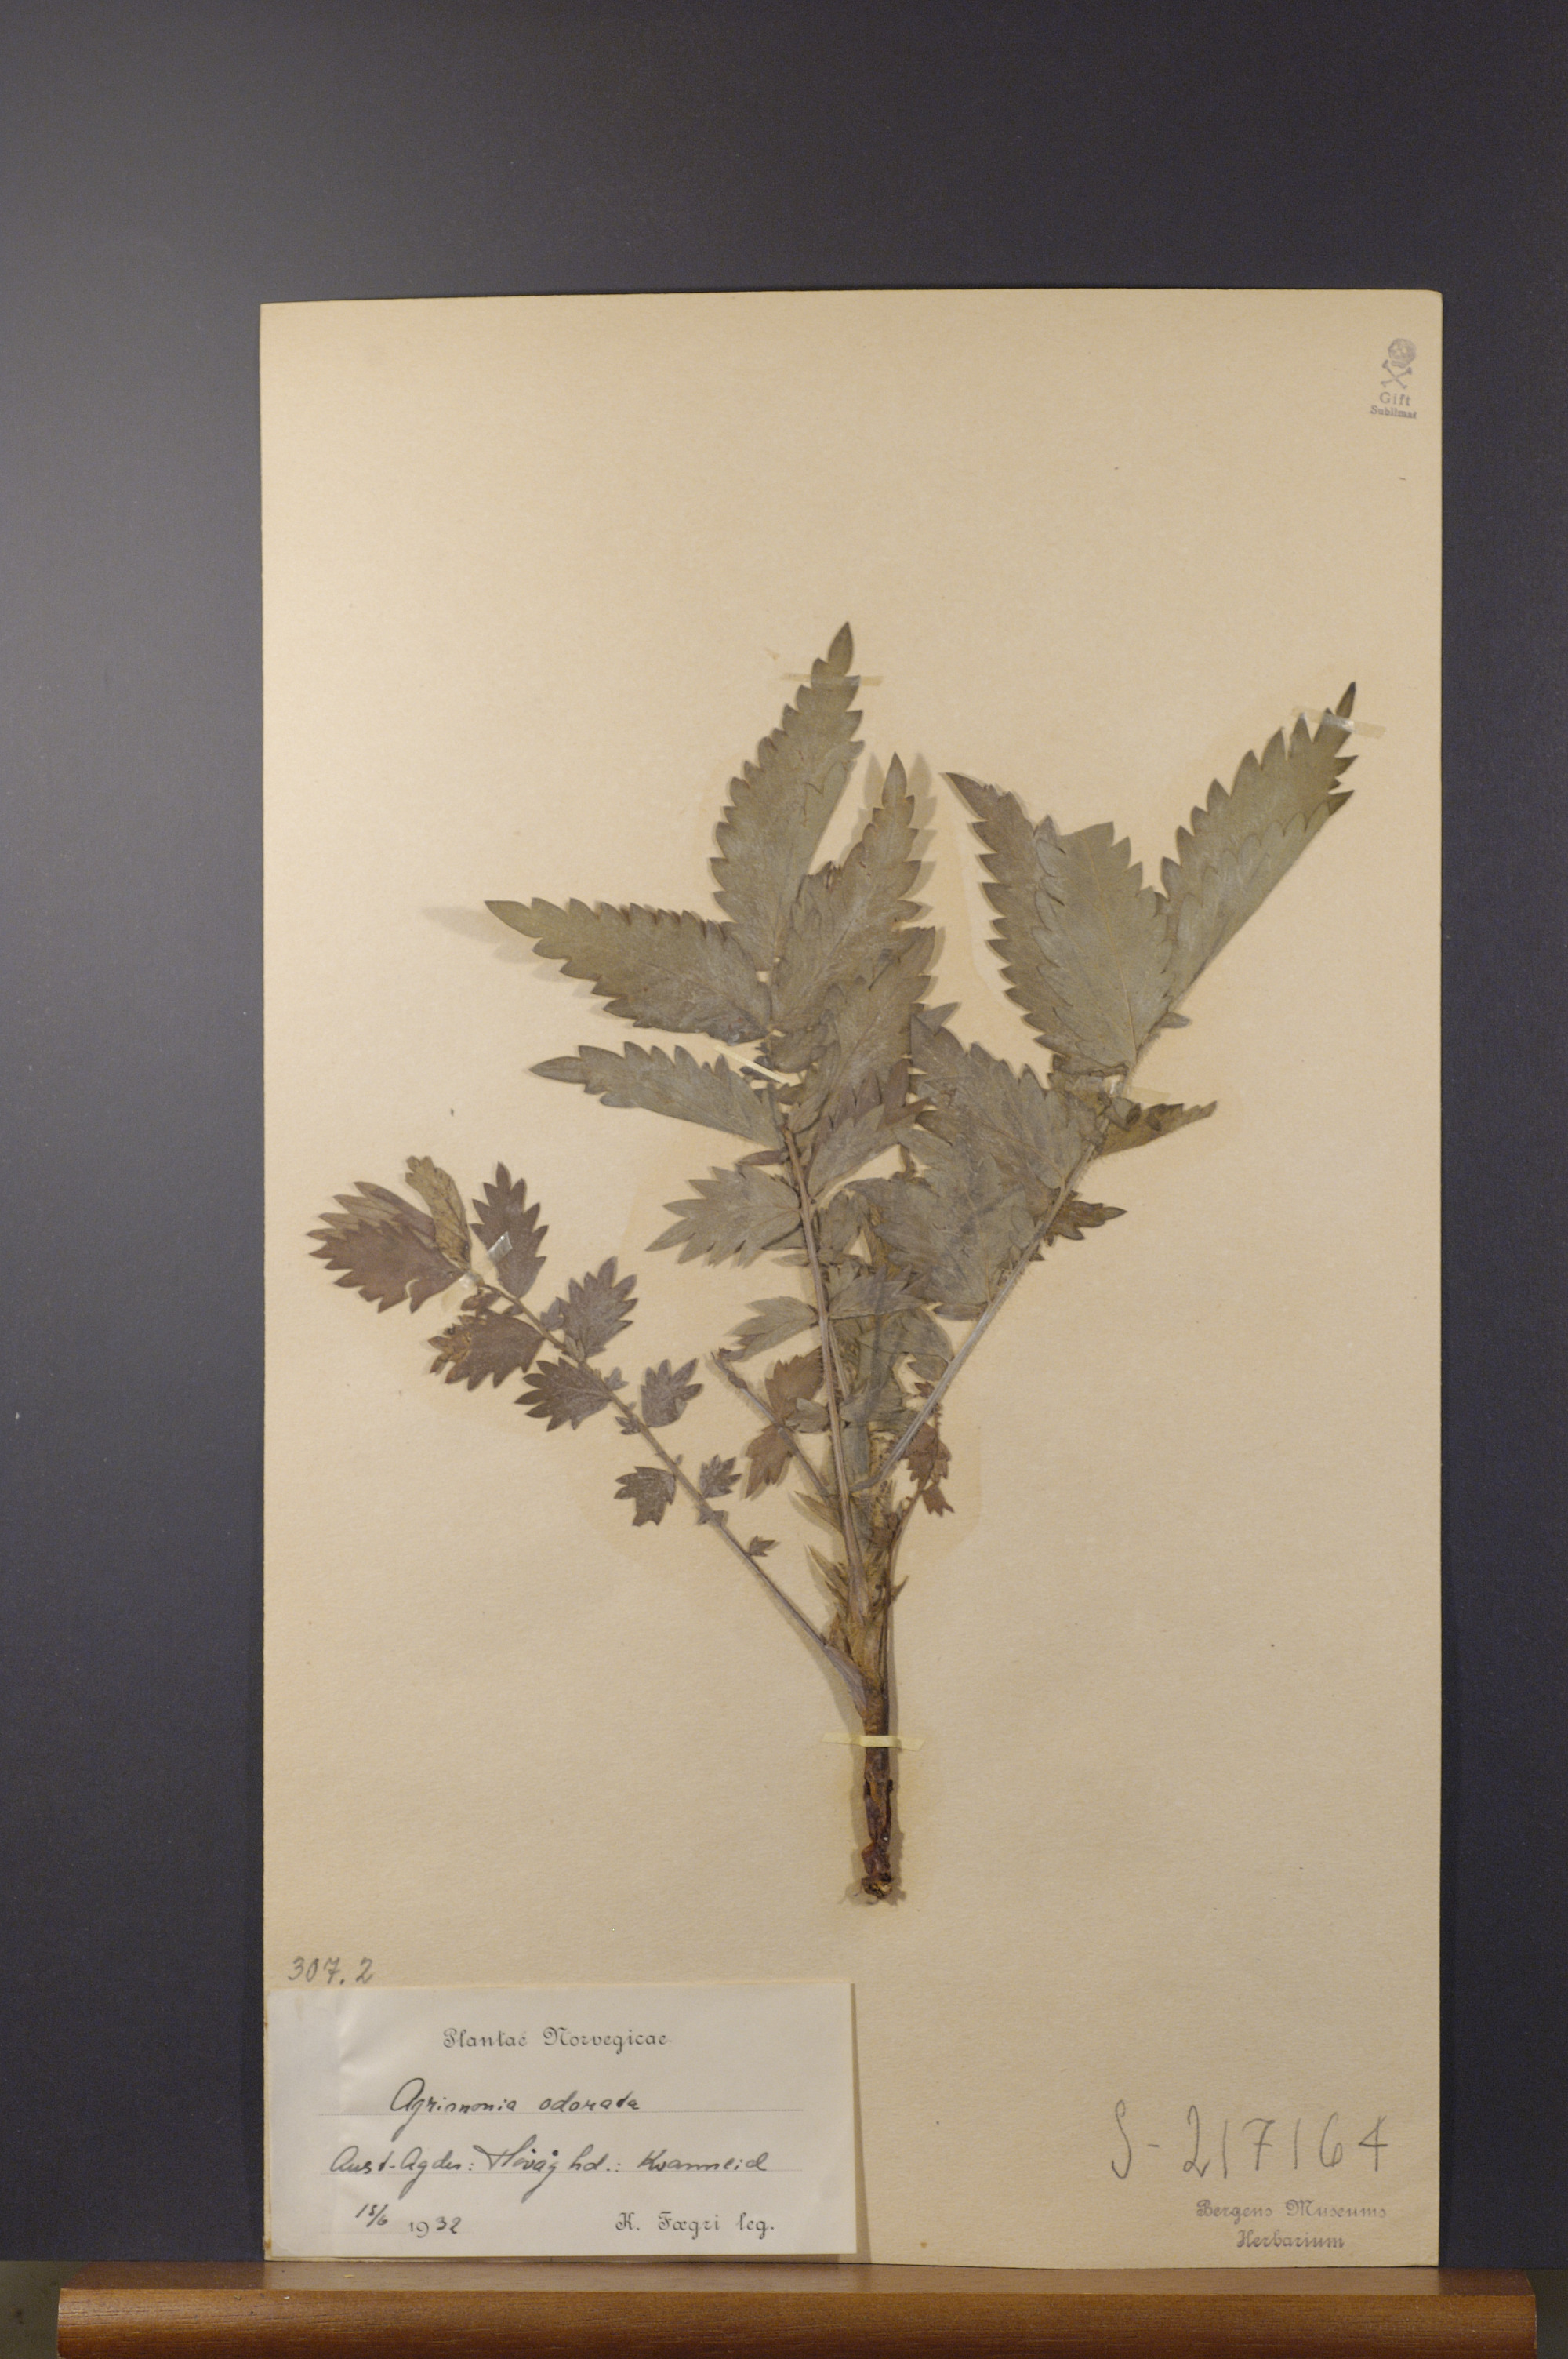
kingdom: Plantae
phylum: Tracheophyta
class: Magnoliopsida
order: Rosales
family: Rosaceae
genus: Agrimonia
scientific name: Agrimonia procera
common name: Fragrant agrimony
